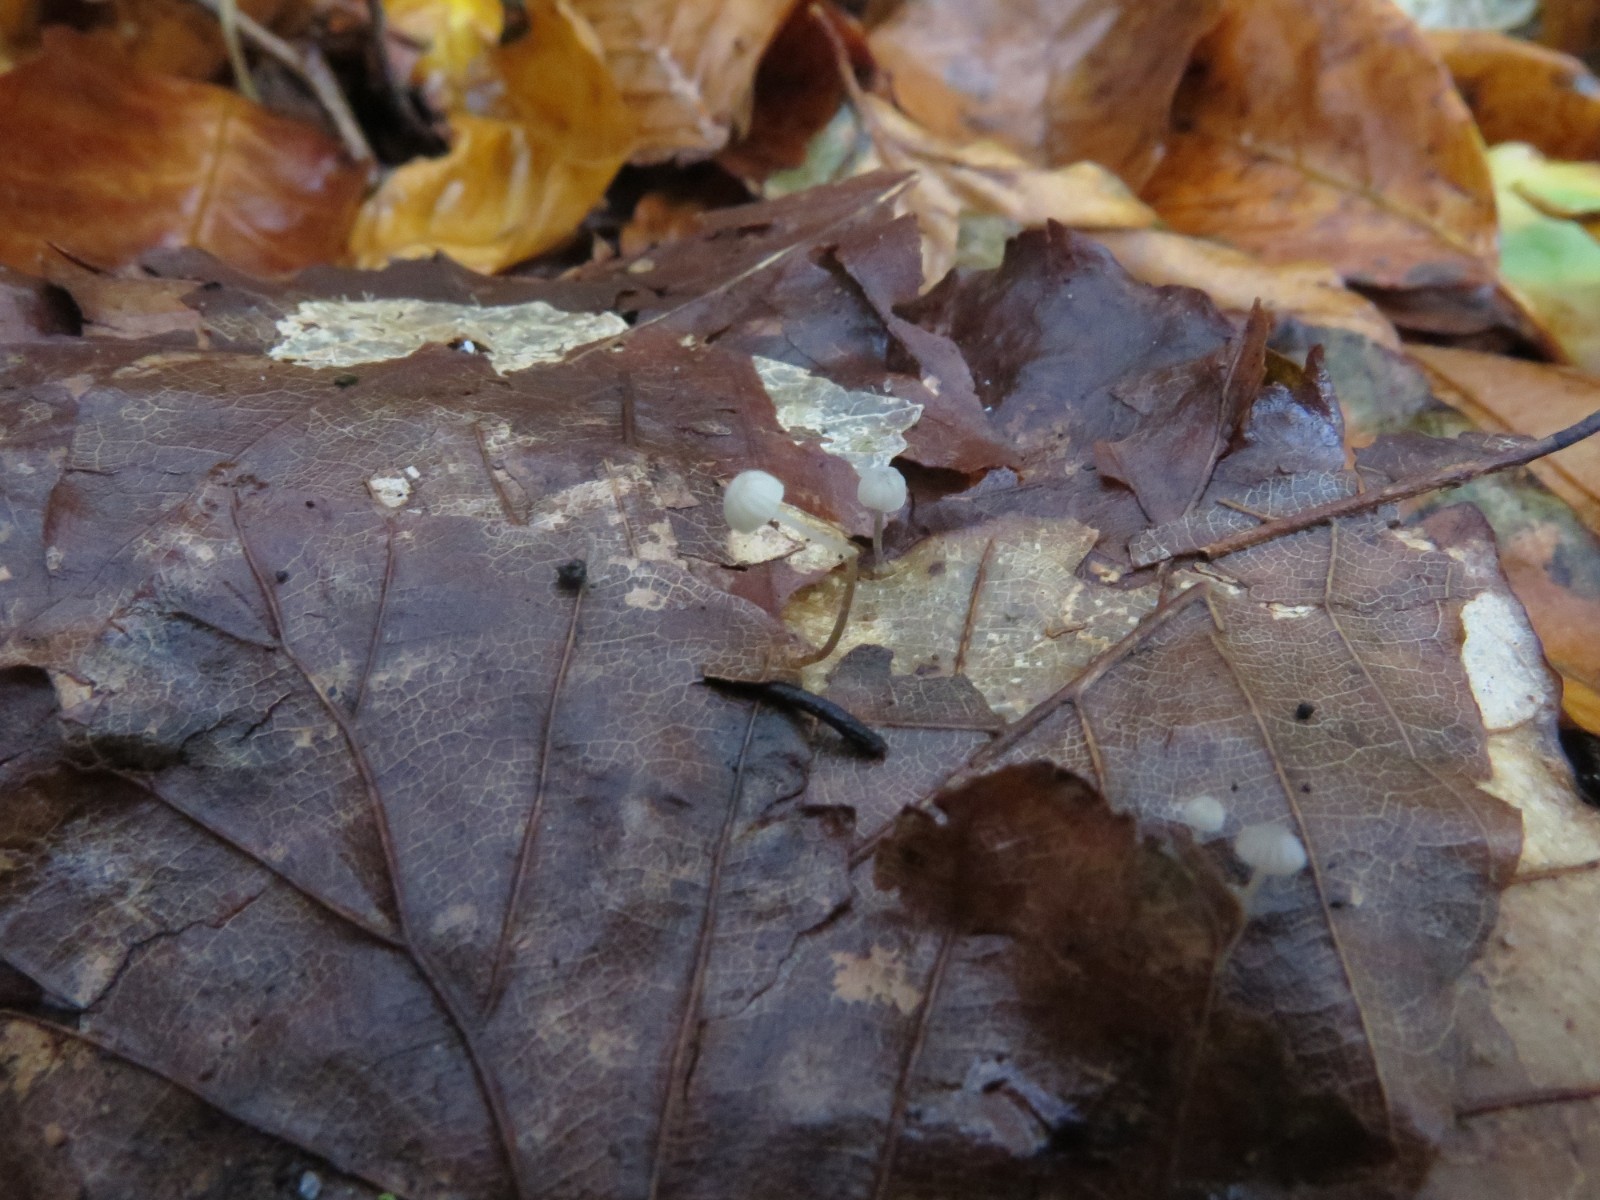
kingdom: Fungi
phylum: Basidiomycota
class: Agaricomycetes
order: Agaricales
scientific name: Agaricales
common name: champignonordenen
